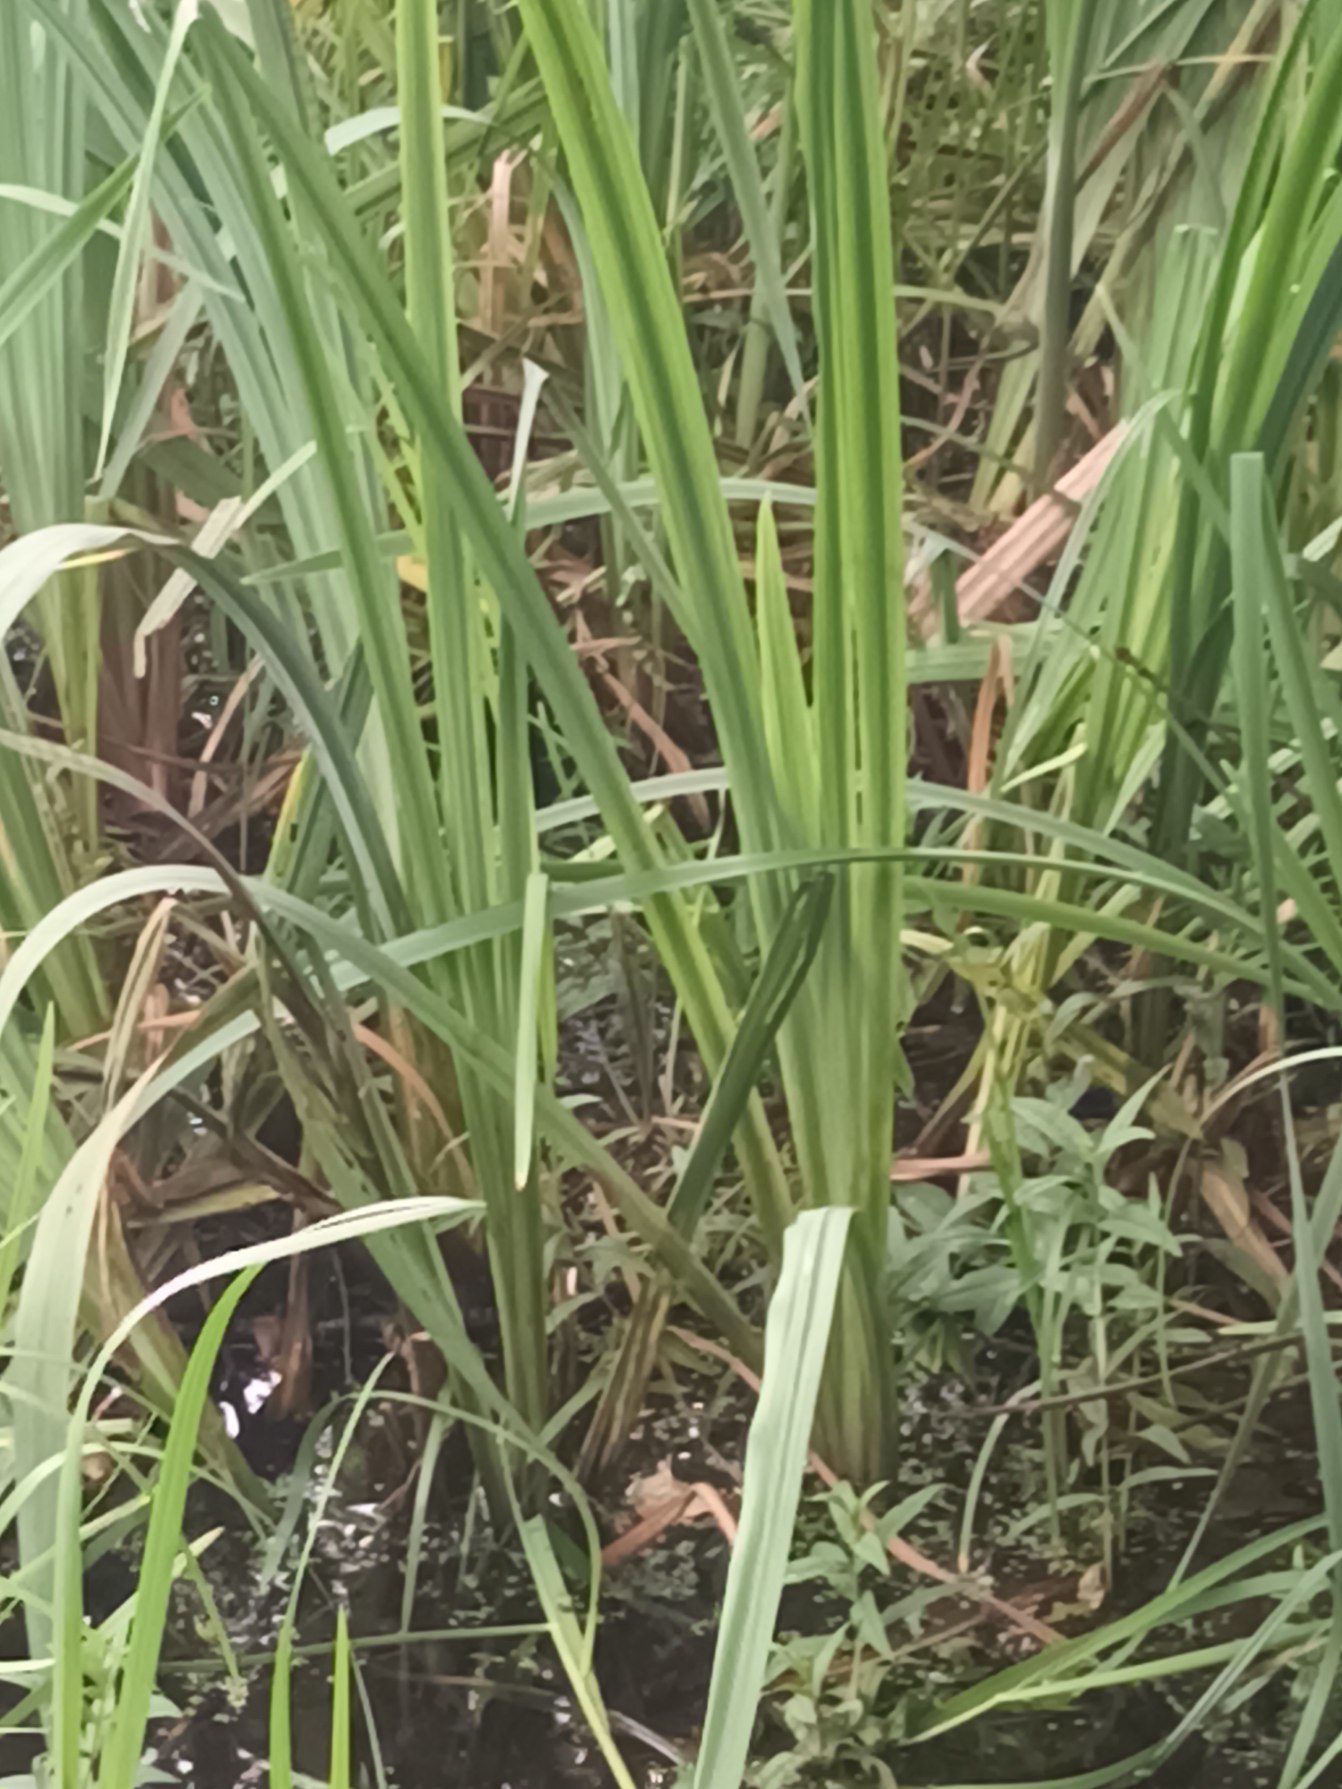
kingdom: Plantae
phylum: Tracheophyta
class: Liliopsida
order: Asparagales
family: Iridaceae
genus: Iris
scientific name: Iris pseudacorus
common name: Gul iris
